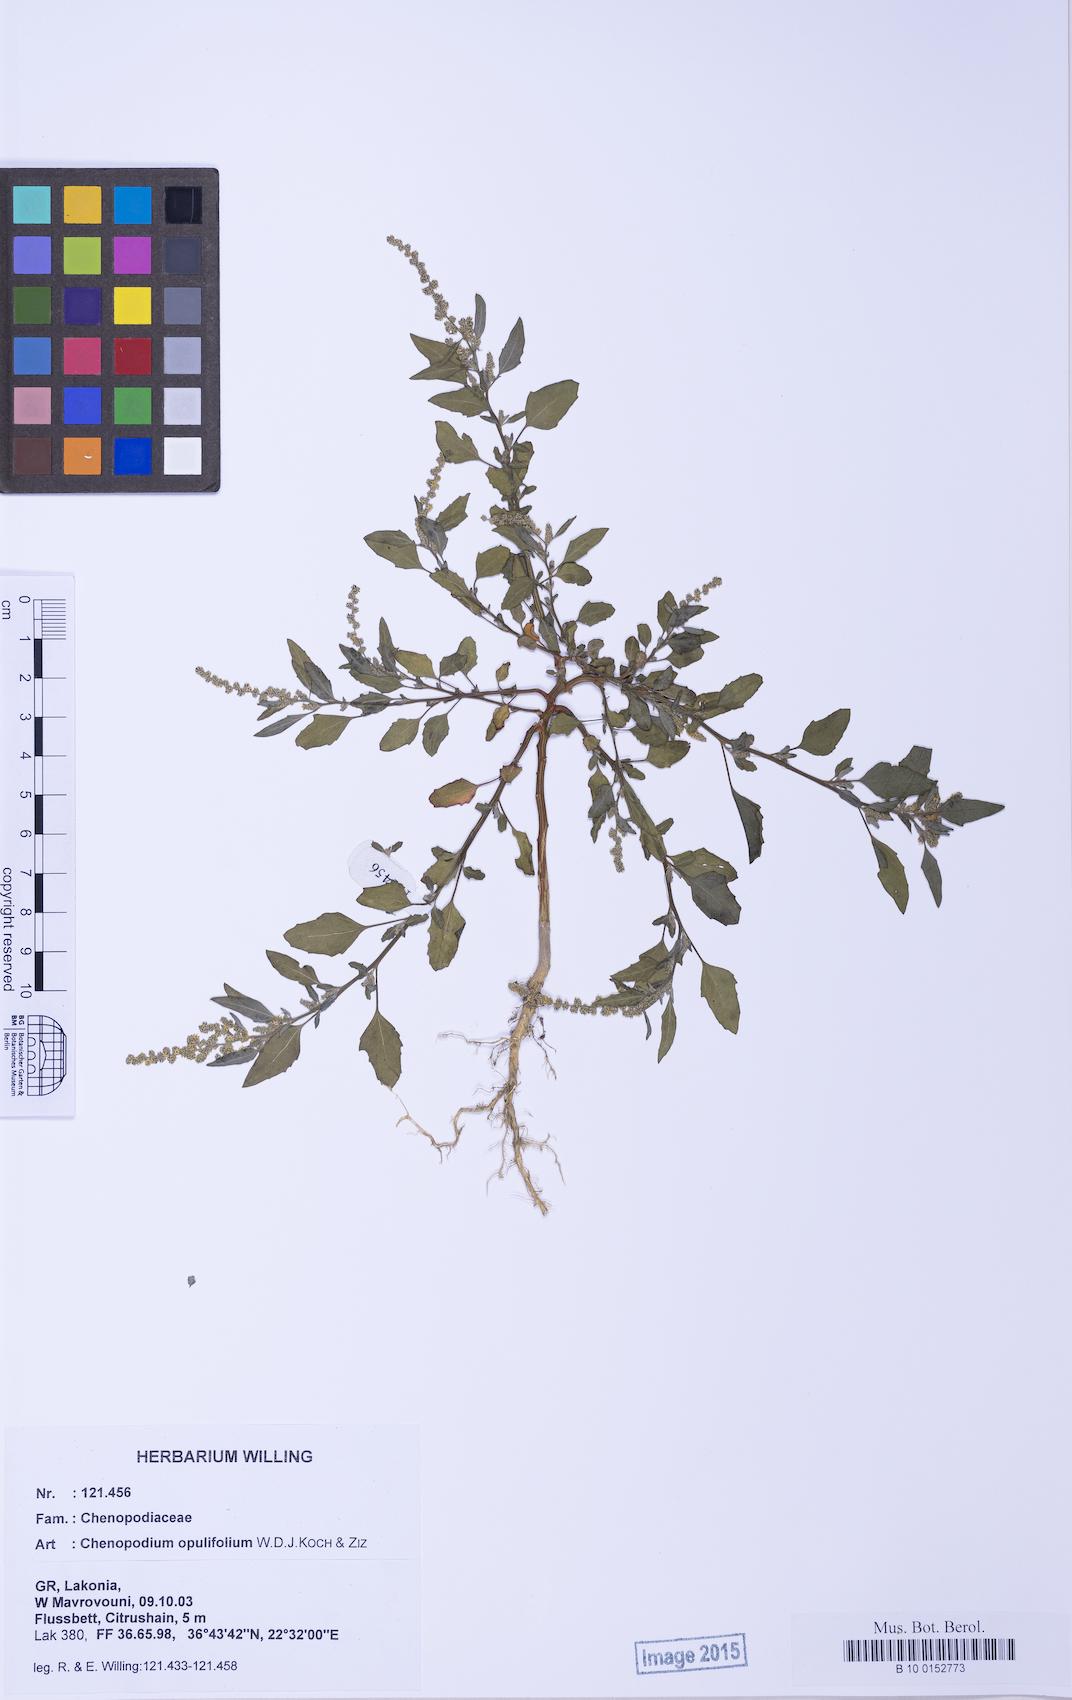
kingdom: Plantae
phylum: Tracheophyta
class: Magnoliopsida
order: Caryophyllales
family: Amaranthaceae
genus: Chenopodium
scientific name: Chenopodium album
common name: Fat-hen
